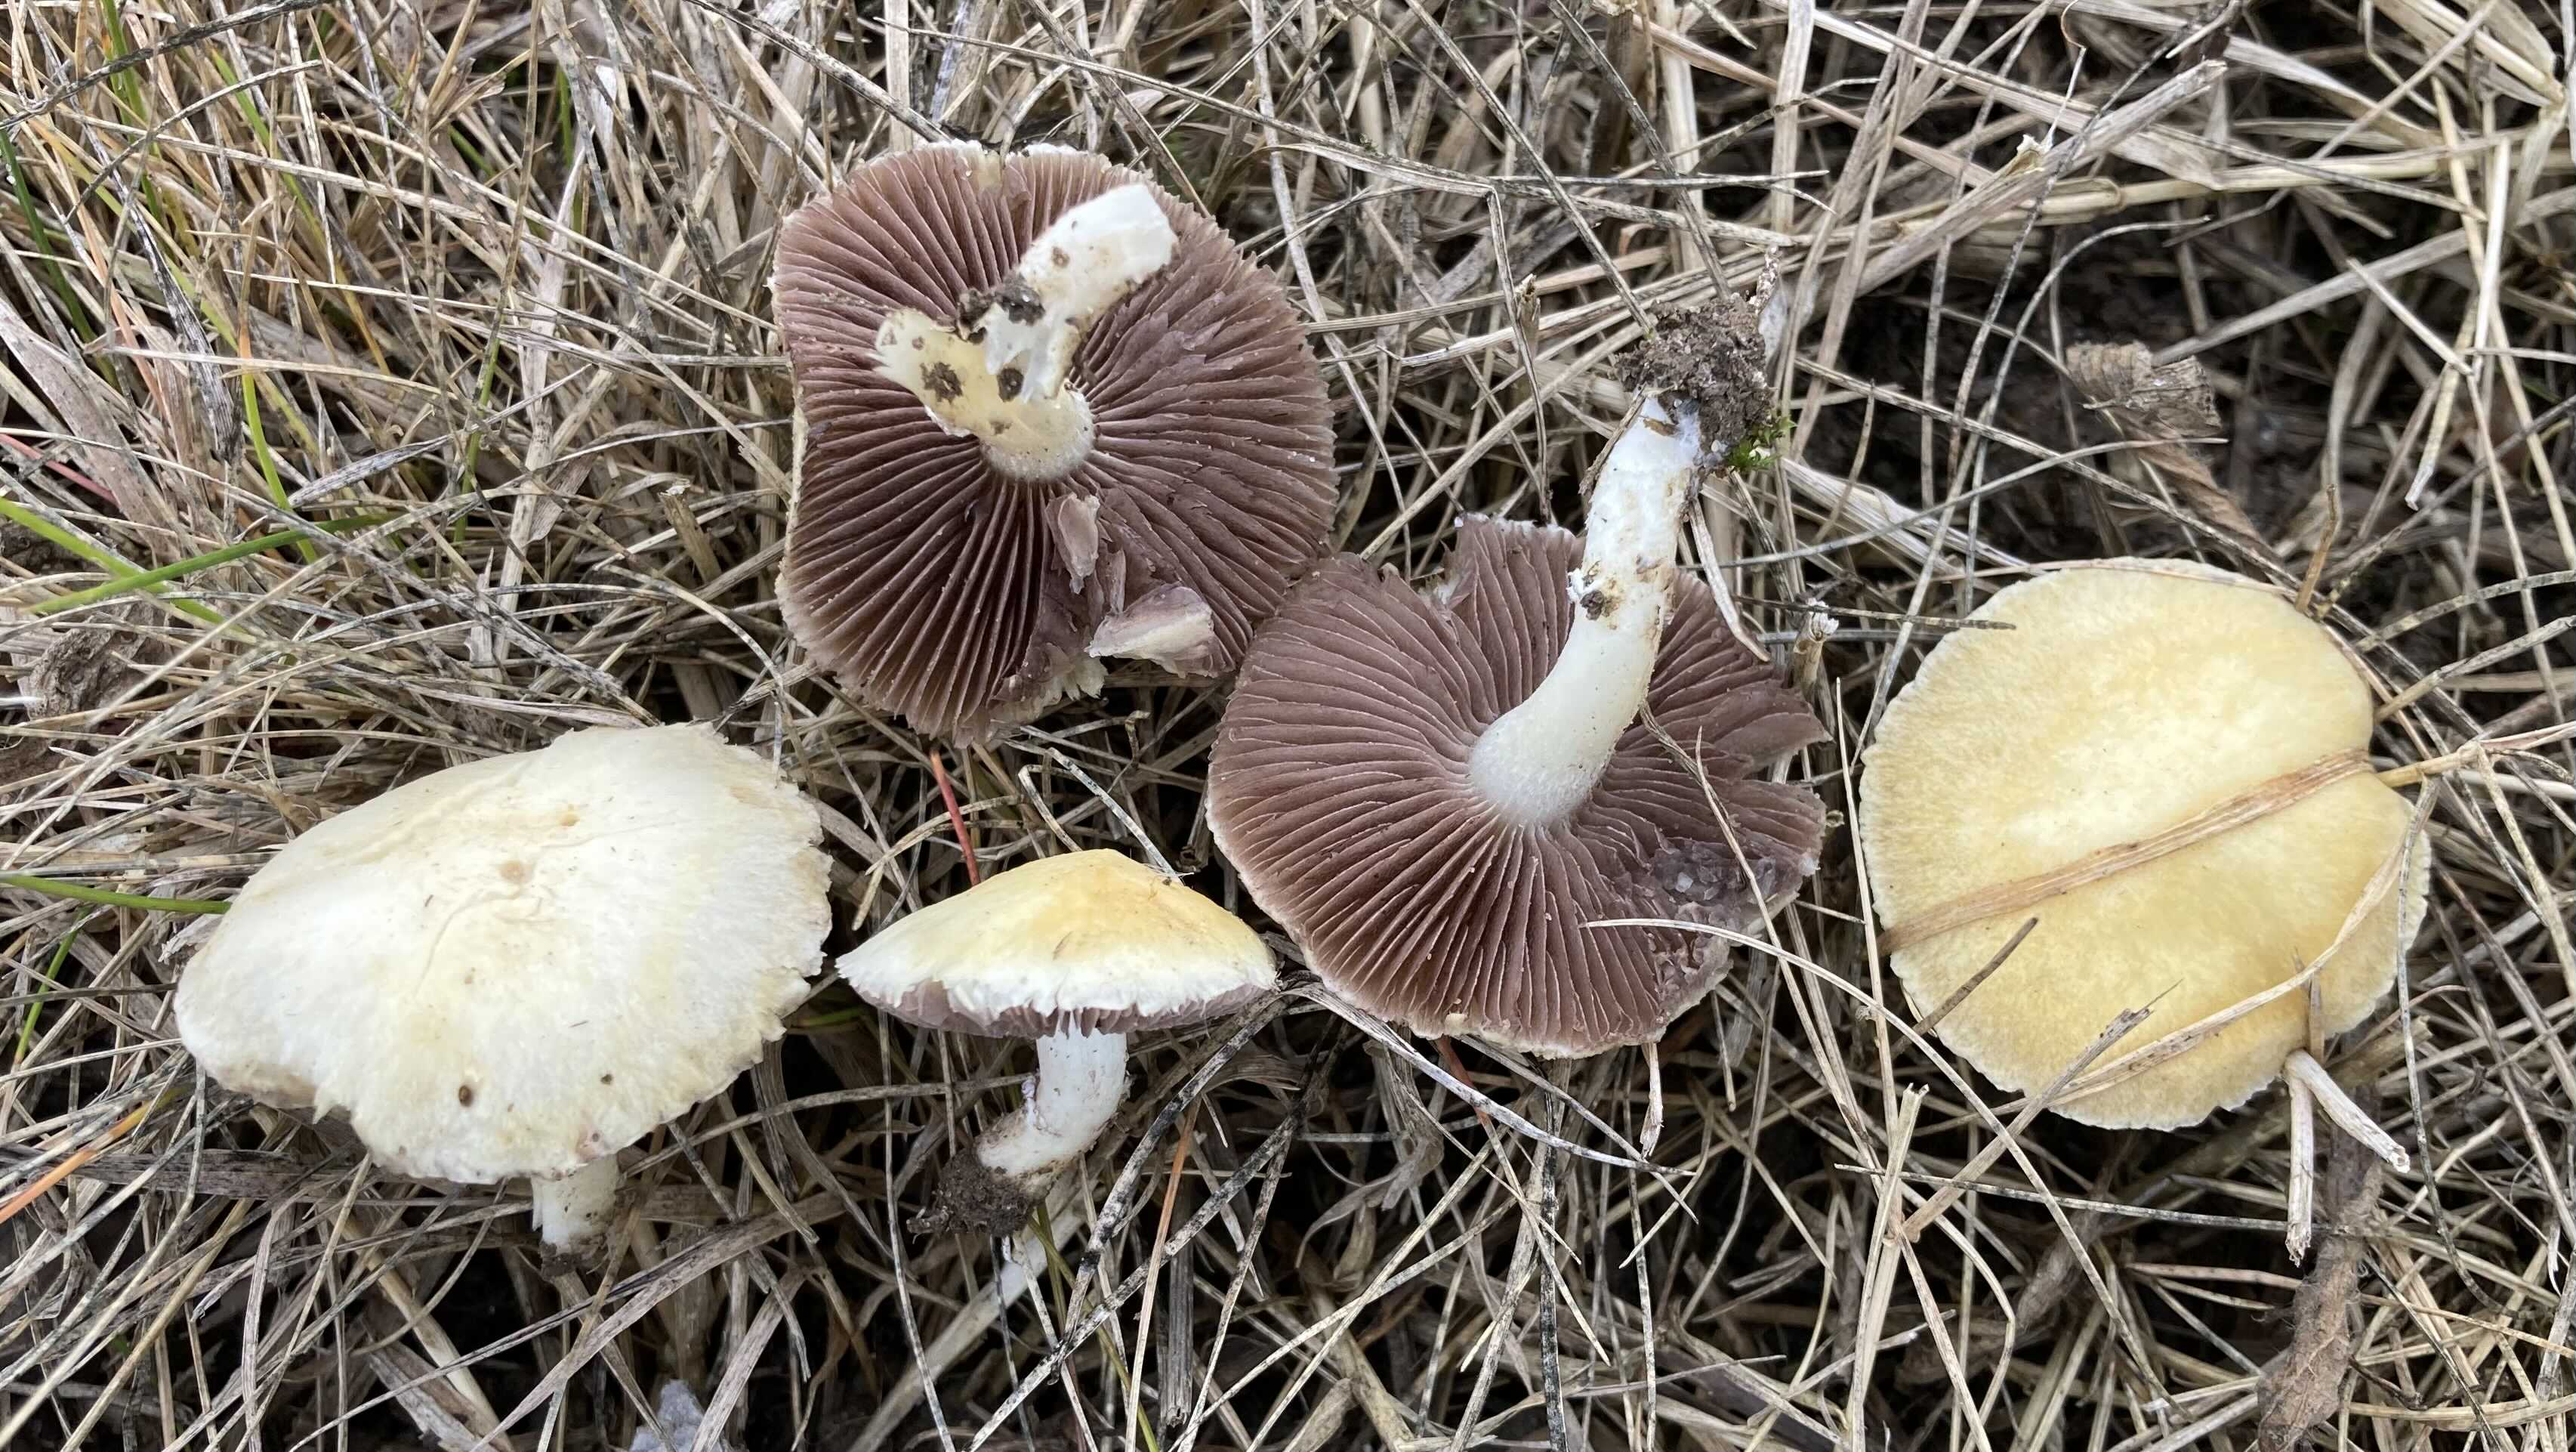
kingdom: Fungi
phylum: Basidiomycota
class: Agaricomycetes
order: Agaricales
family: Hymenogastraceae
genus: Psilocybe
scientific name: Psilocybe coronilla
